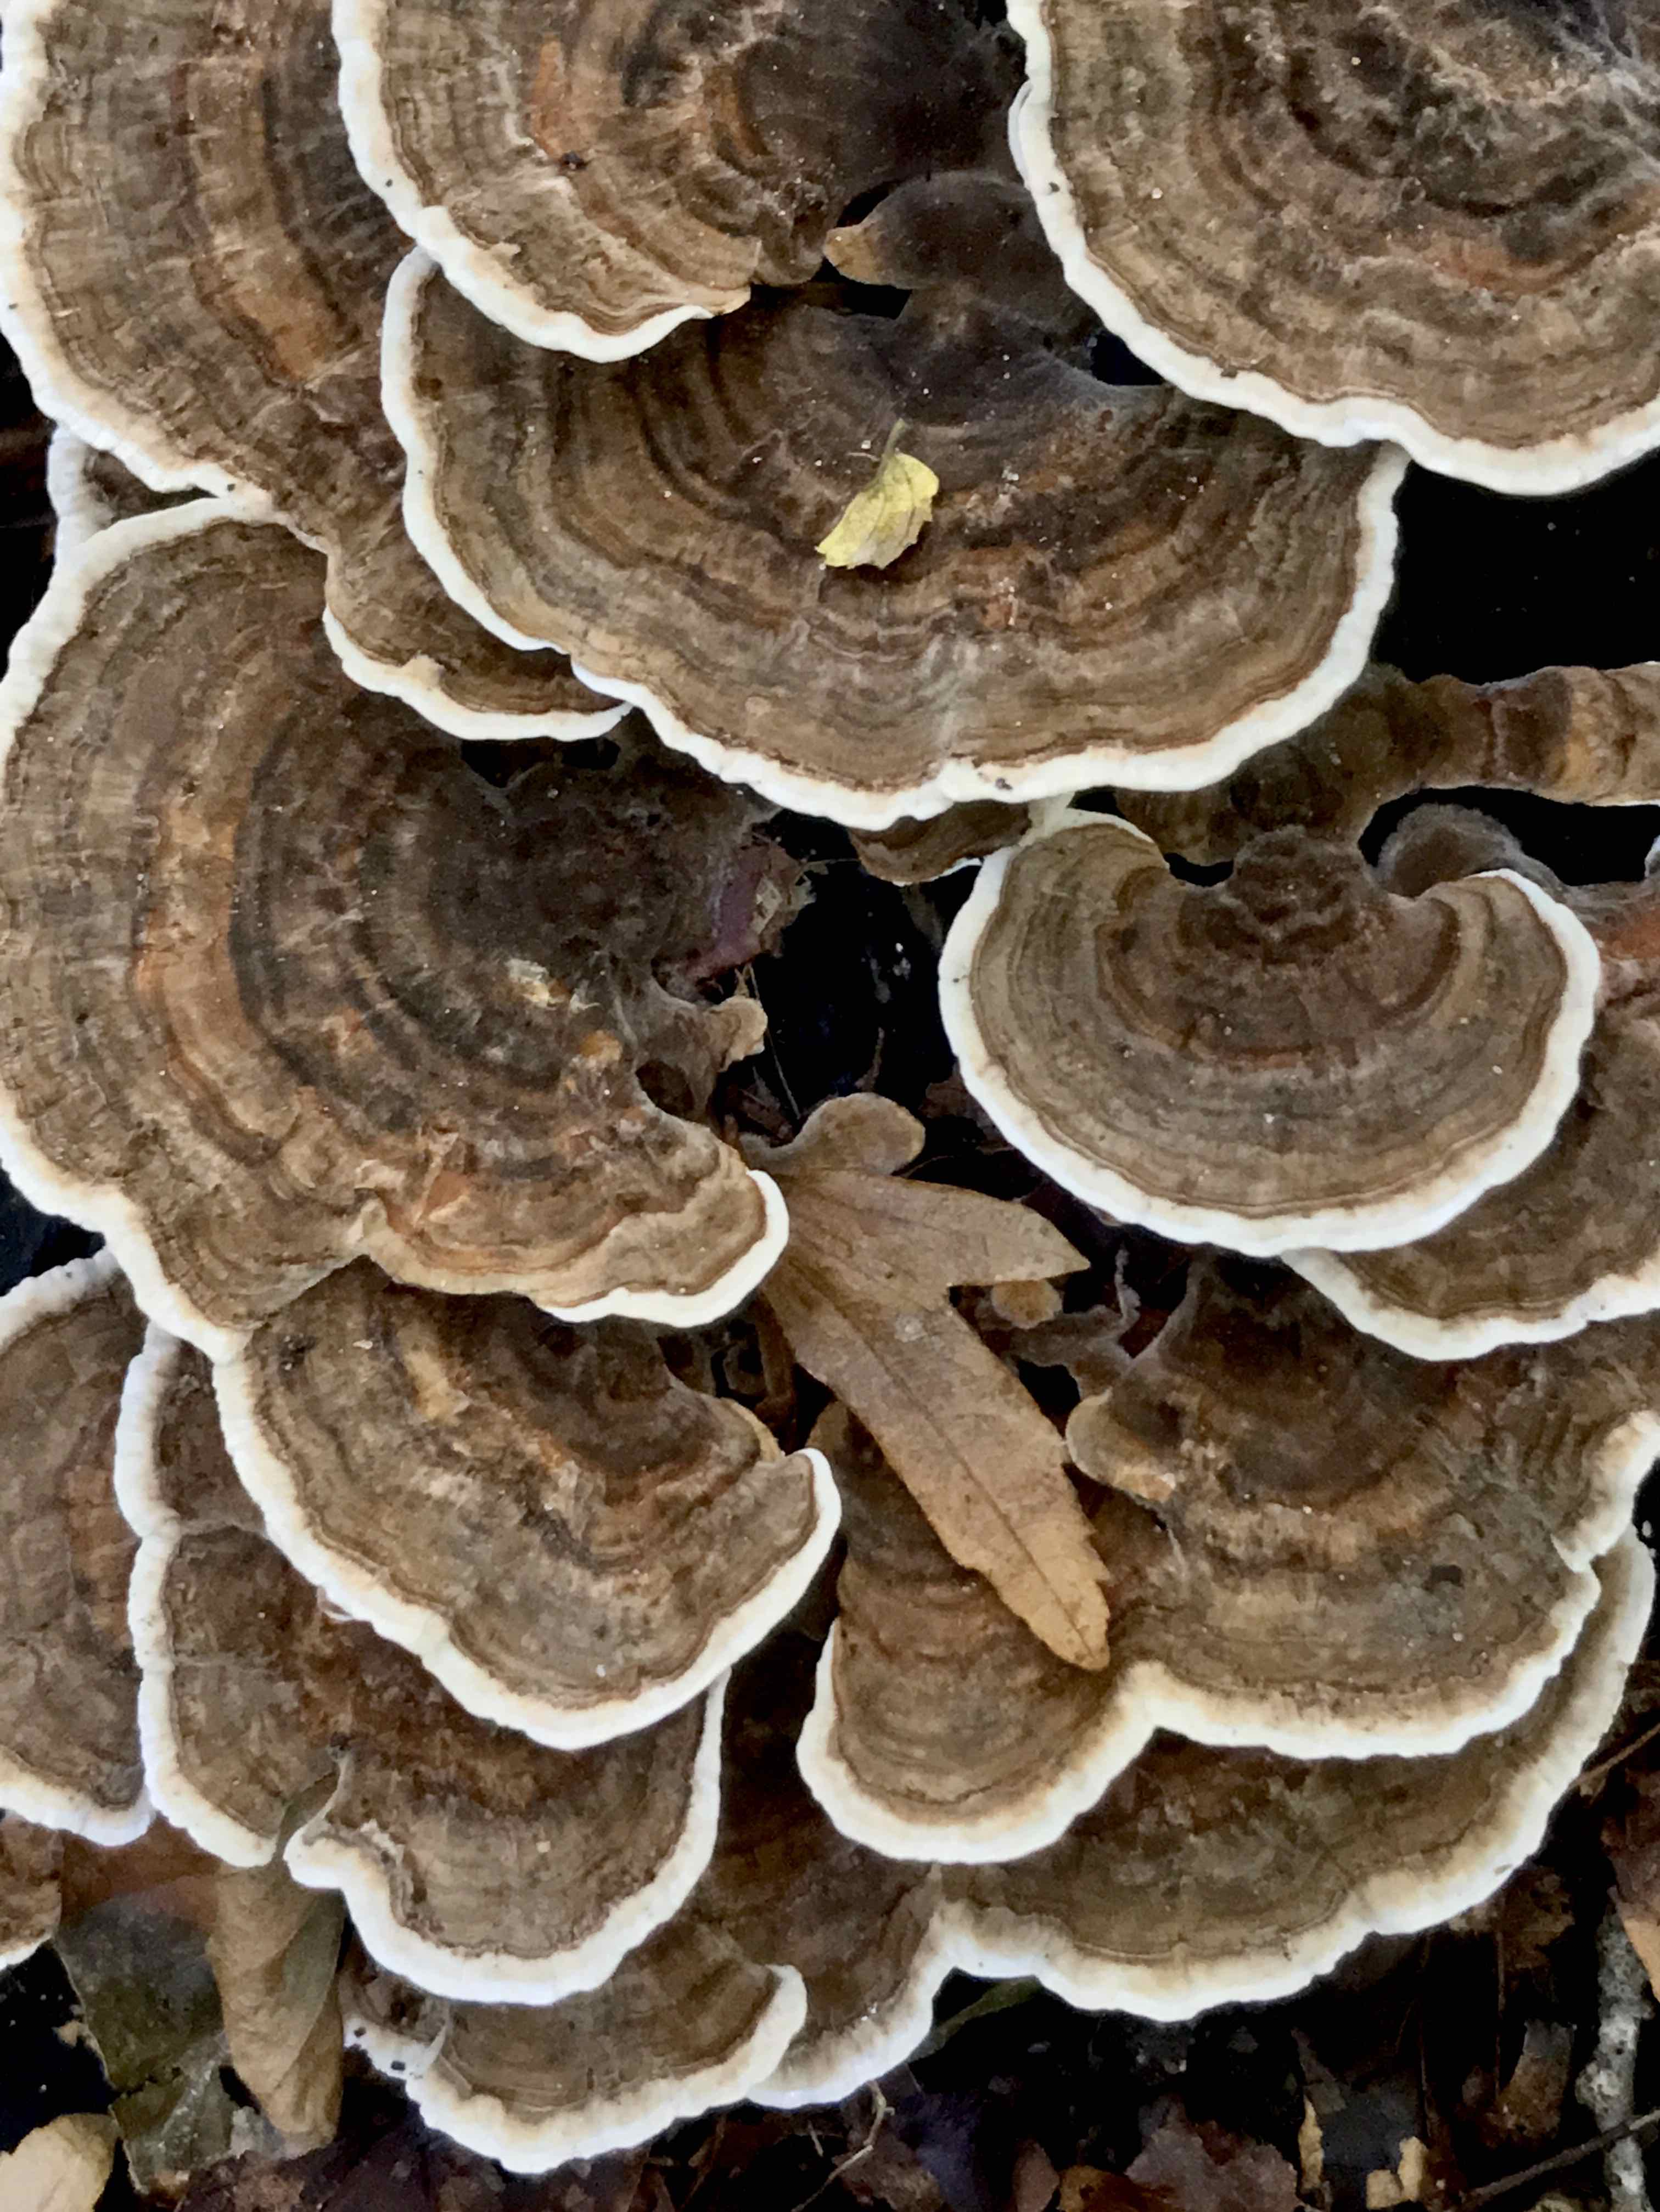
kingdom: Fungi
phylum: Basidiomycota
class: Agaricomycetes
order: Polyporales
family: Polyporaceae
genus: Trametes
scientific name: Trametes versicolor
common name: broget læderporesvamp
